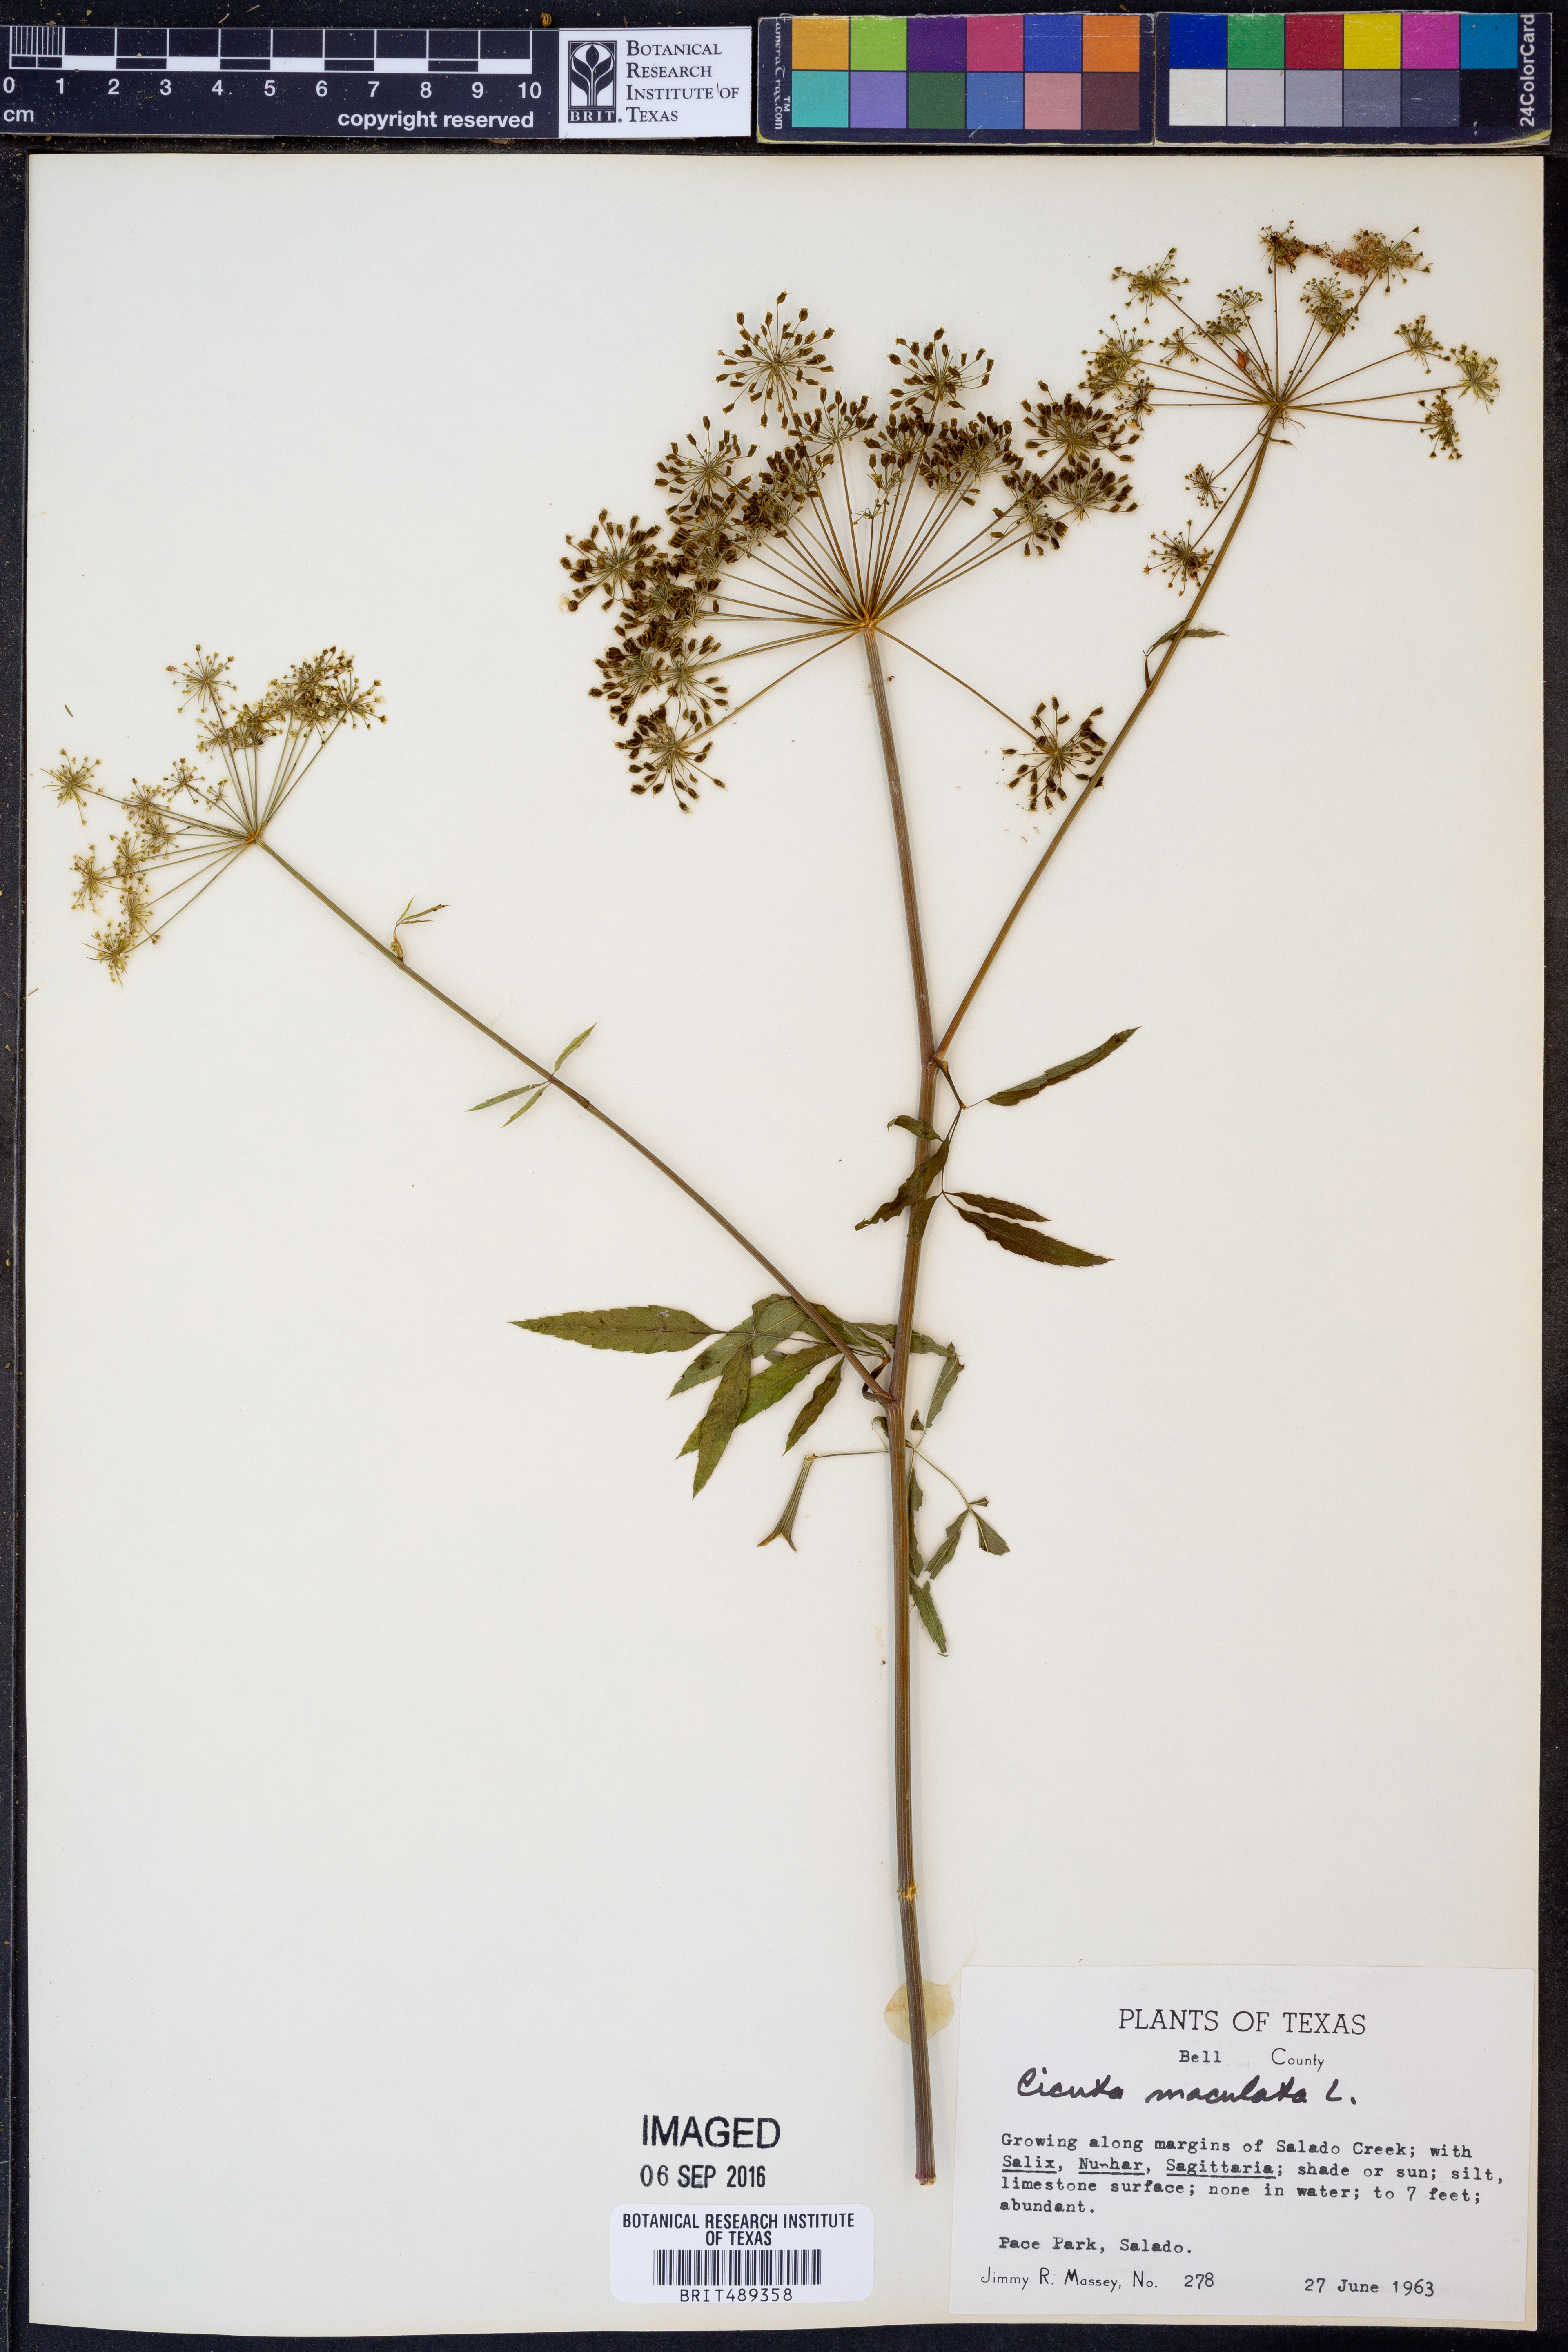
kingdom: Plantae
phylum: Tracheophyta
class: Magnoliopsida
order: Apiales
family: Apiaceae
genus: Cicuta
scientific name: Cicuta maculata
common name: Spotted cowbane
